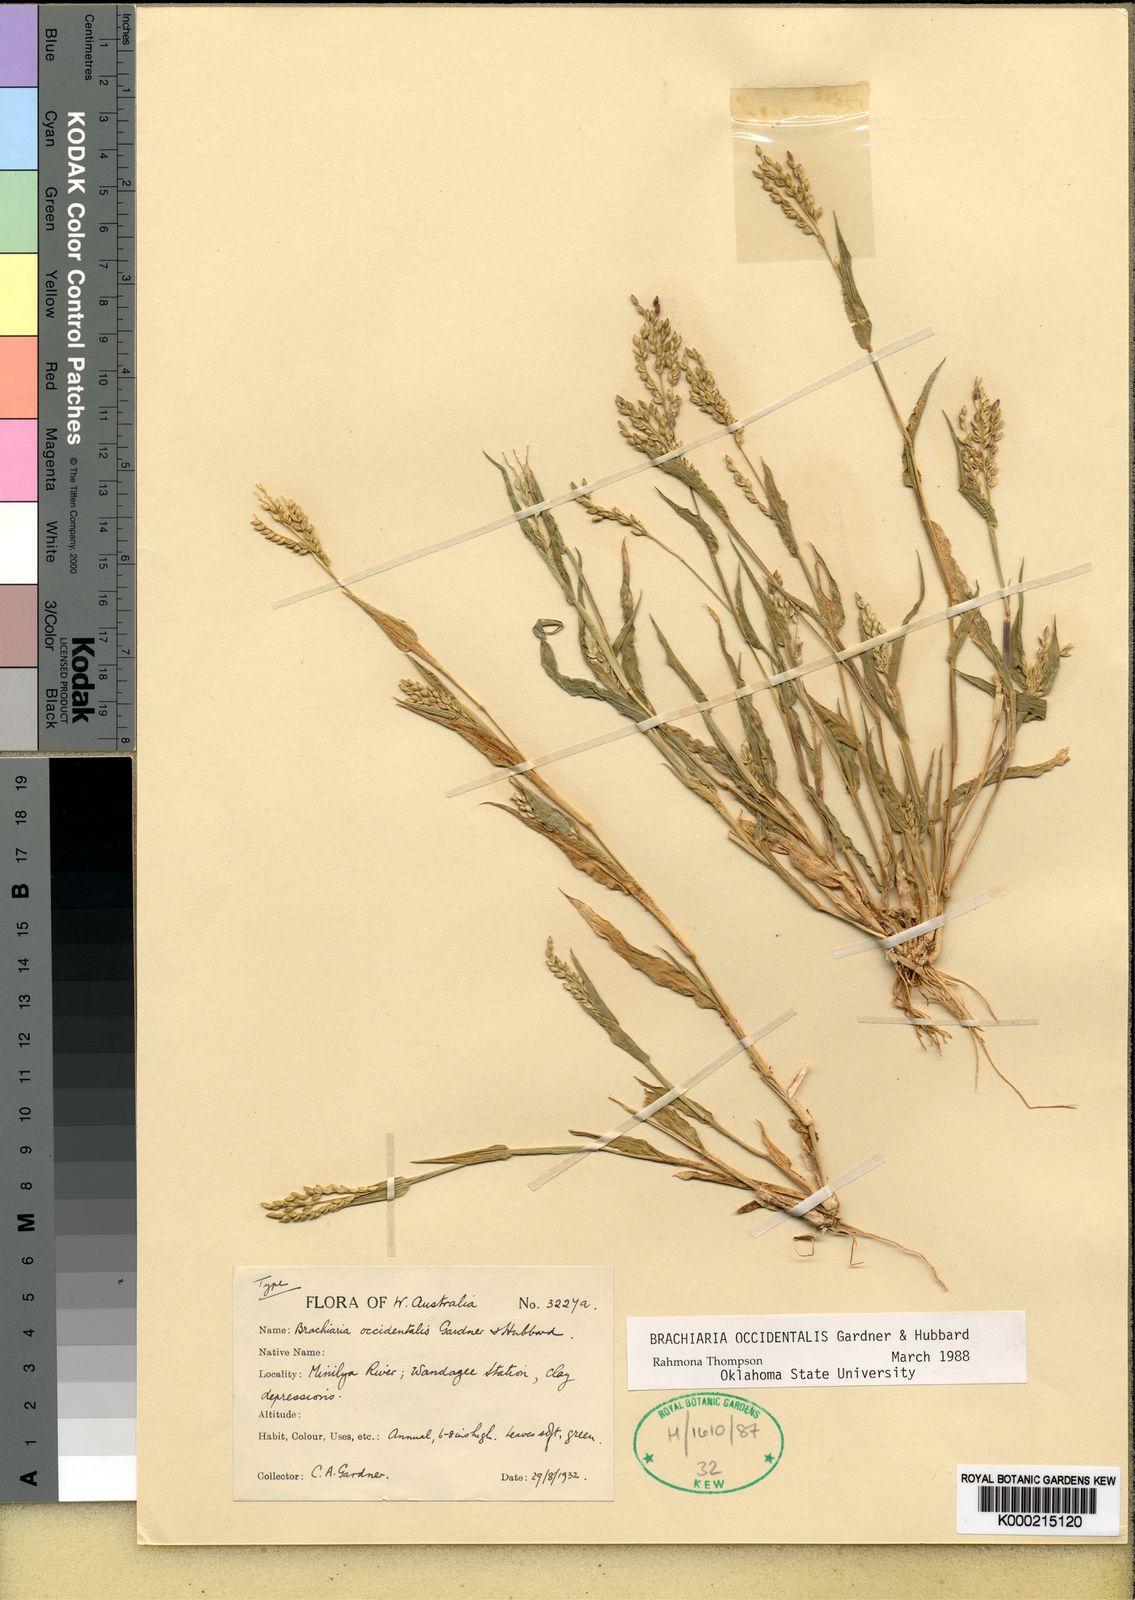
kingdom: Plantae
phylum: Tracheophyta
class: Liliopsida
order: Poales
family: Poaceae
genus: Urochloa
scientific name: Urochloa occidentalis
